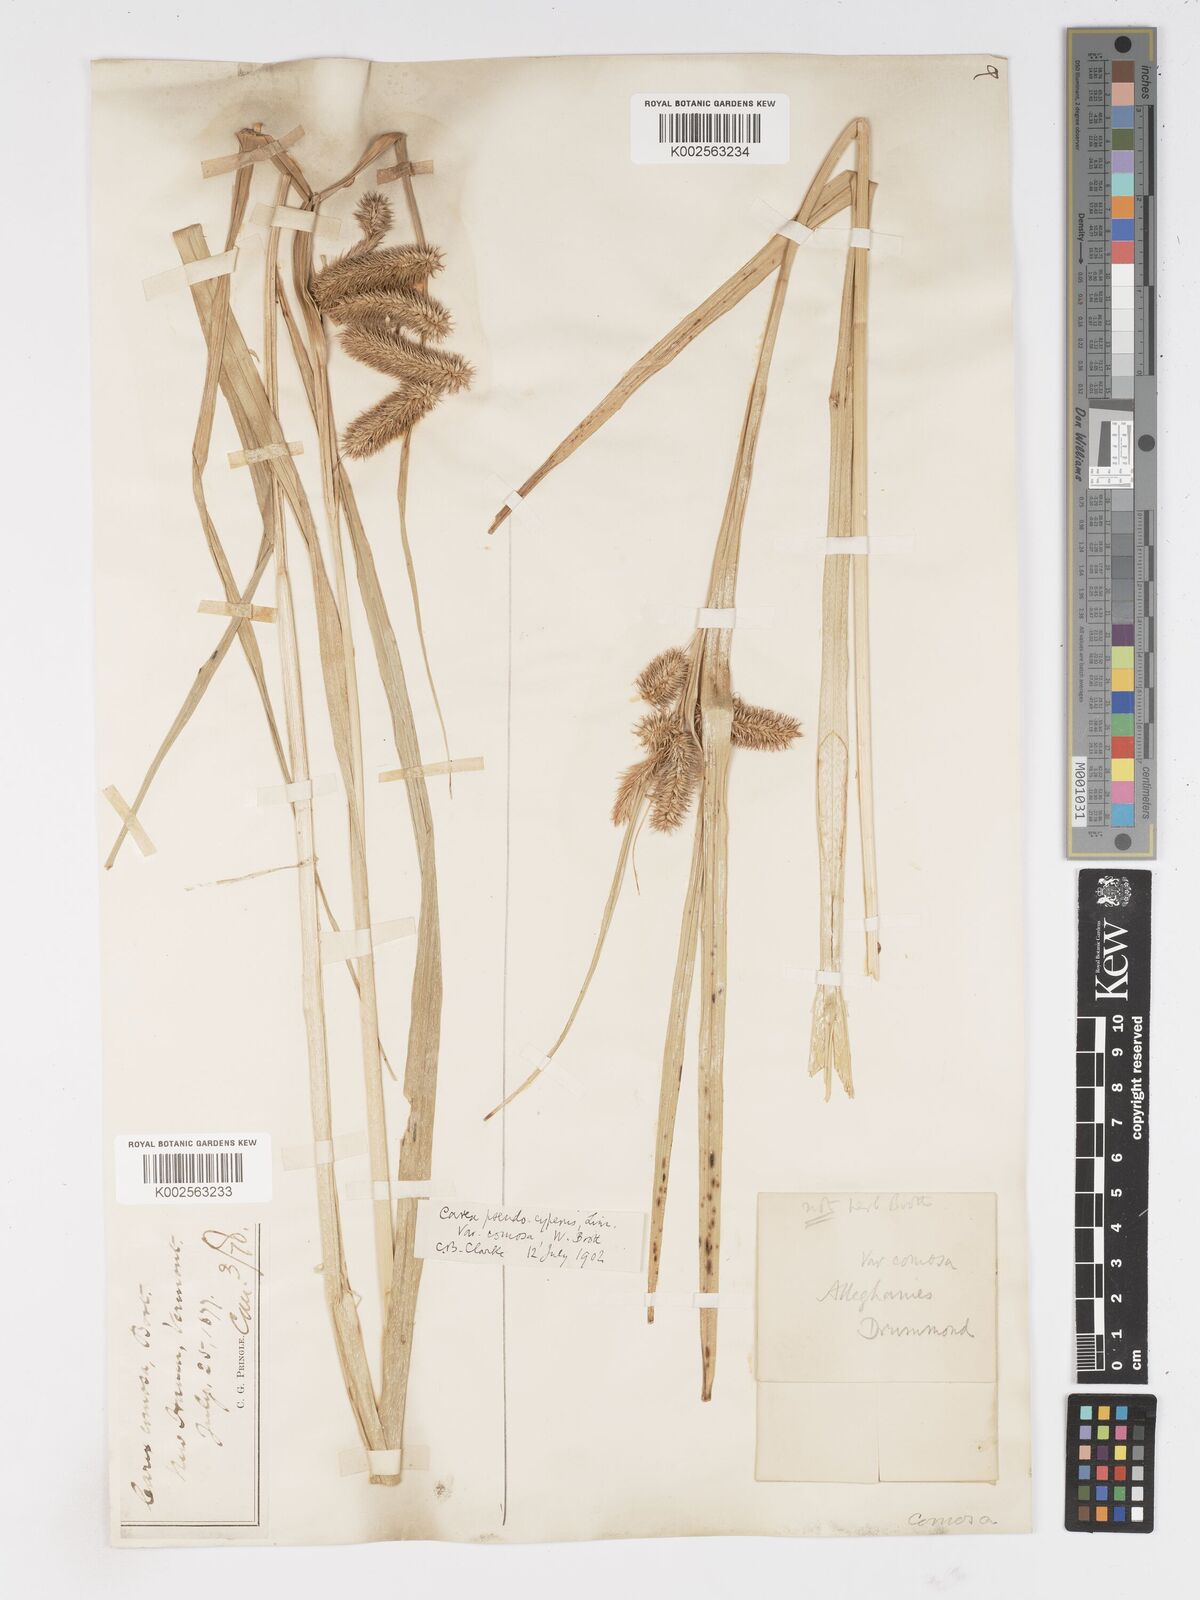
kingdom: Plantae
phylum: Tracheophyta
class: Liliopsida
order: Poales
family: Cyperaceae
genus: Carex
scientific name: Carex comosa
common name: Bristly sedge
